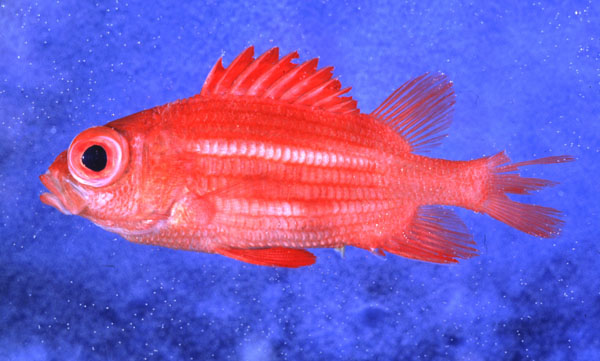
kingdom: Animalia
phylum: Chordata
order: Beryciformes
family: Holocentridae
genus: Sargocentron
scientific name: Sargocentron caudimaculatum
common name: Fanfin soldier
